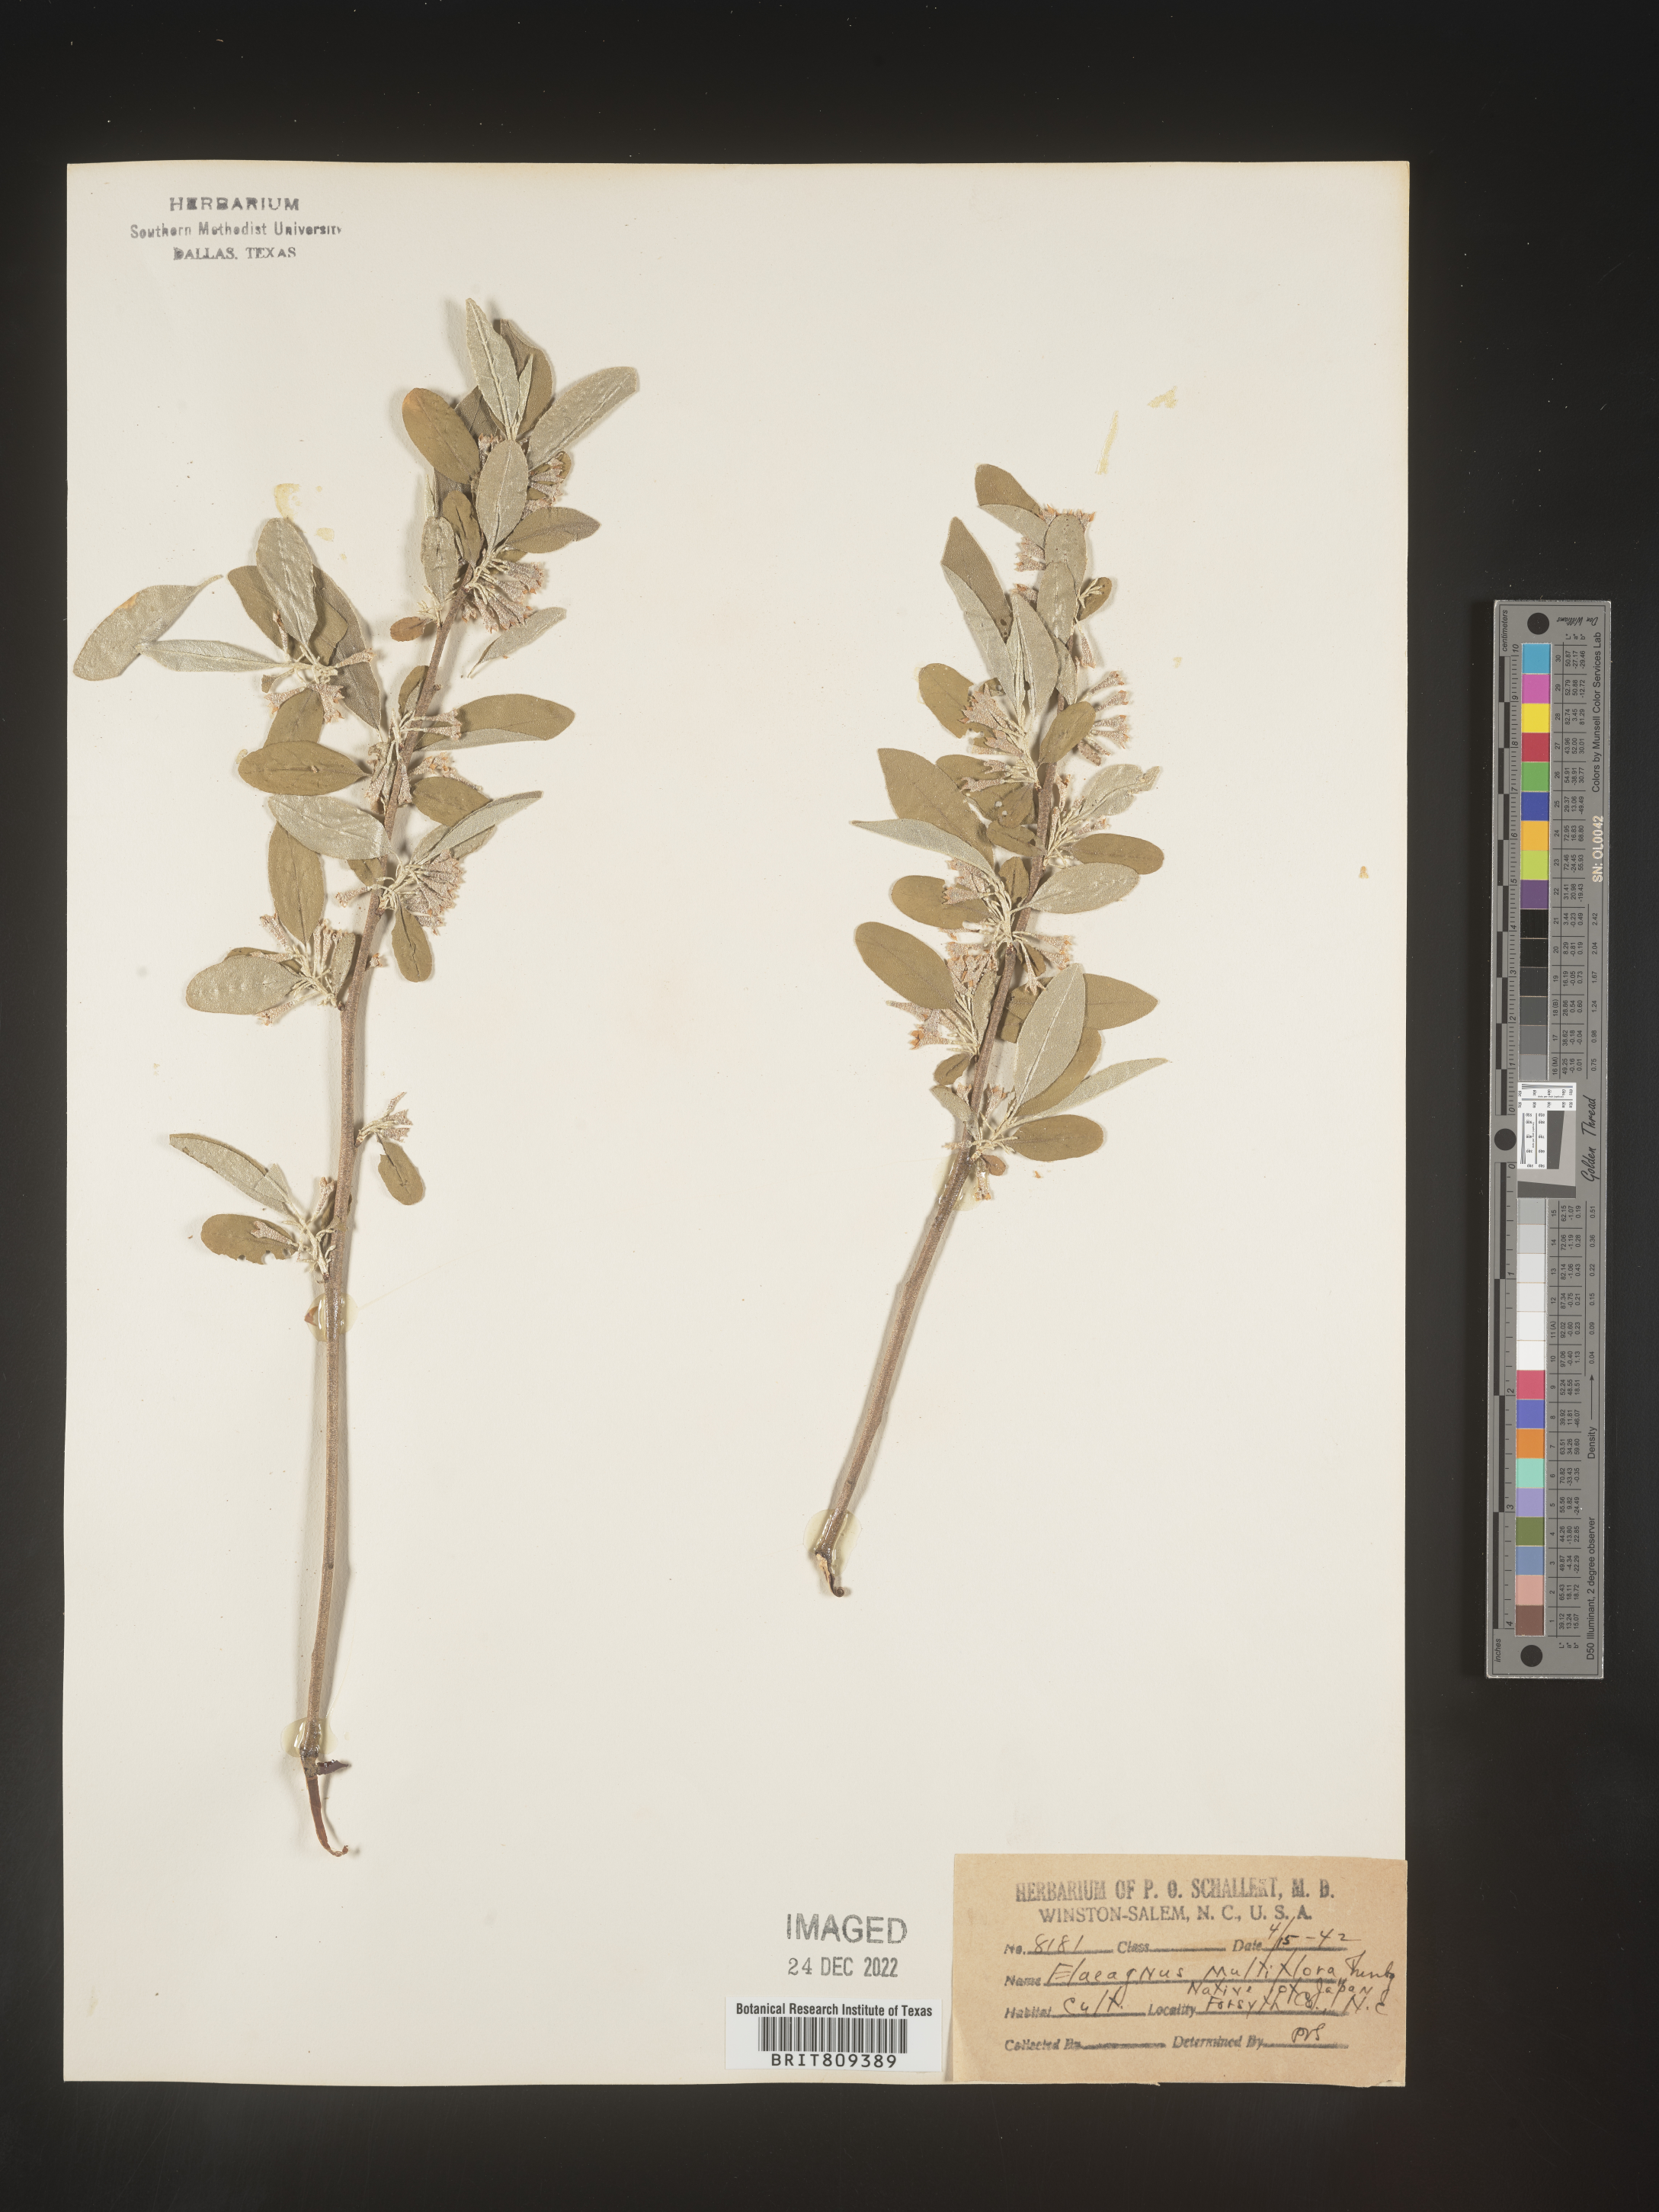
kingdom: Plantae
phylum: Tracheophyta
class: Magnoliopsida
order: Rosales
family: Elaeagnaceae
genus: Elaeagnus
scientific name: Elaeagnus
